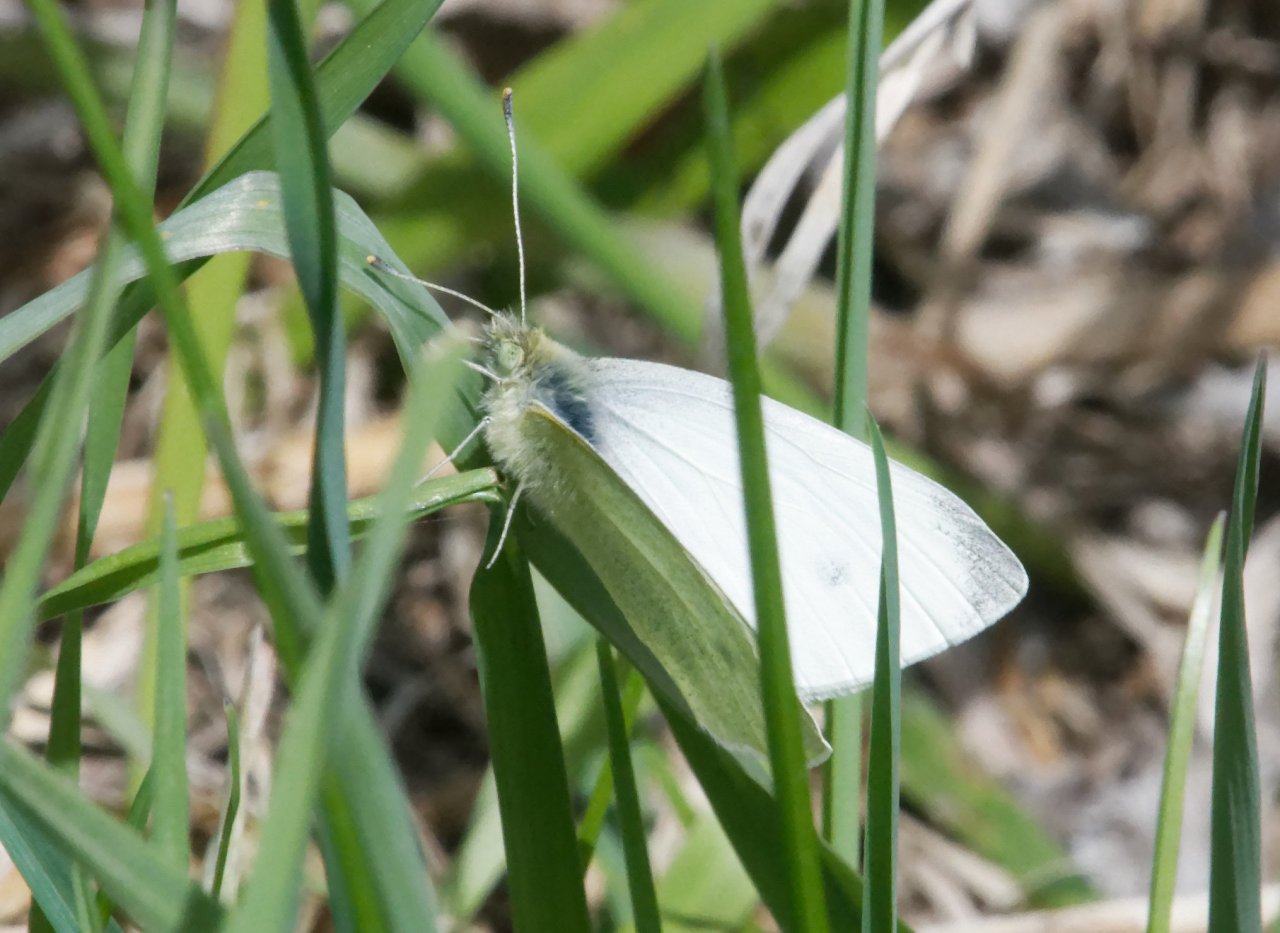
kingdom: Animalia
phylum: Arthropoda
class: Insecta
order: Lepidoptera
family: Pieridae
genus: Pieris
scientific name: Pieris rapae
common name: Cabbage White
